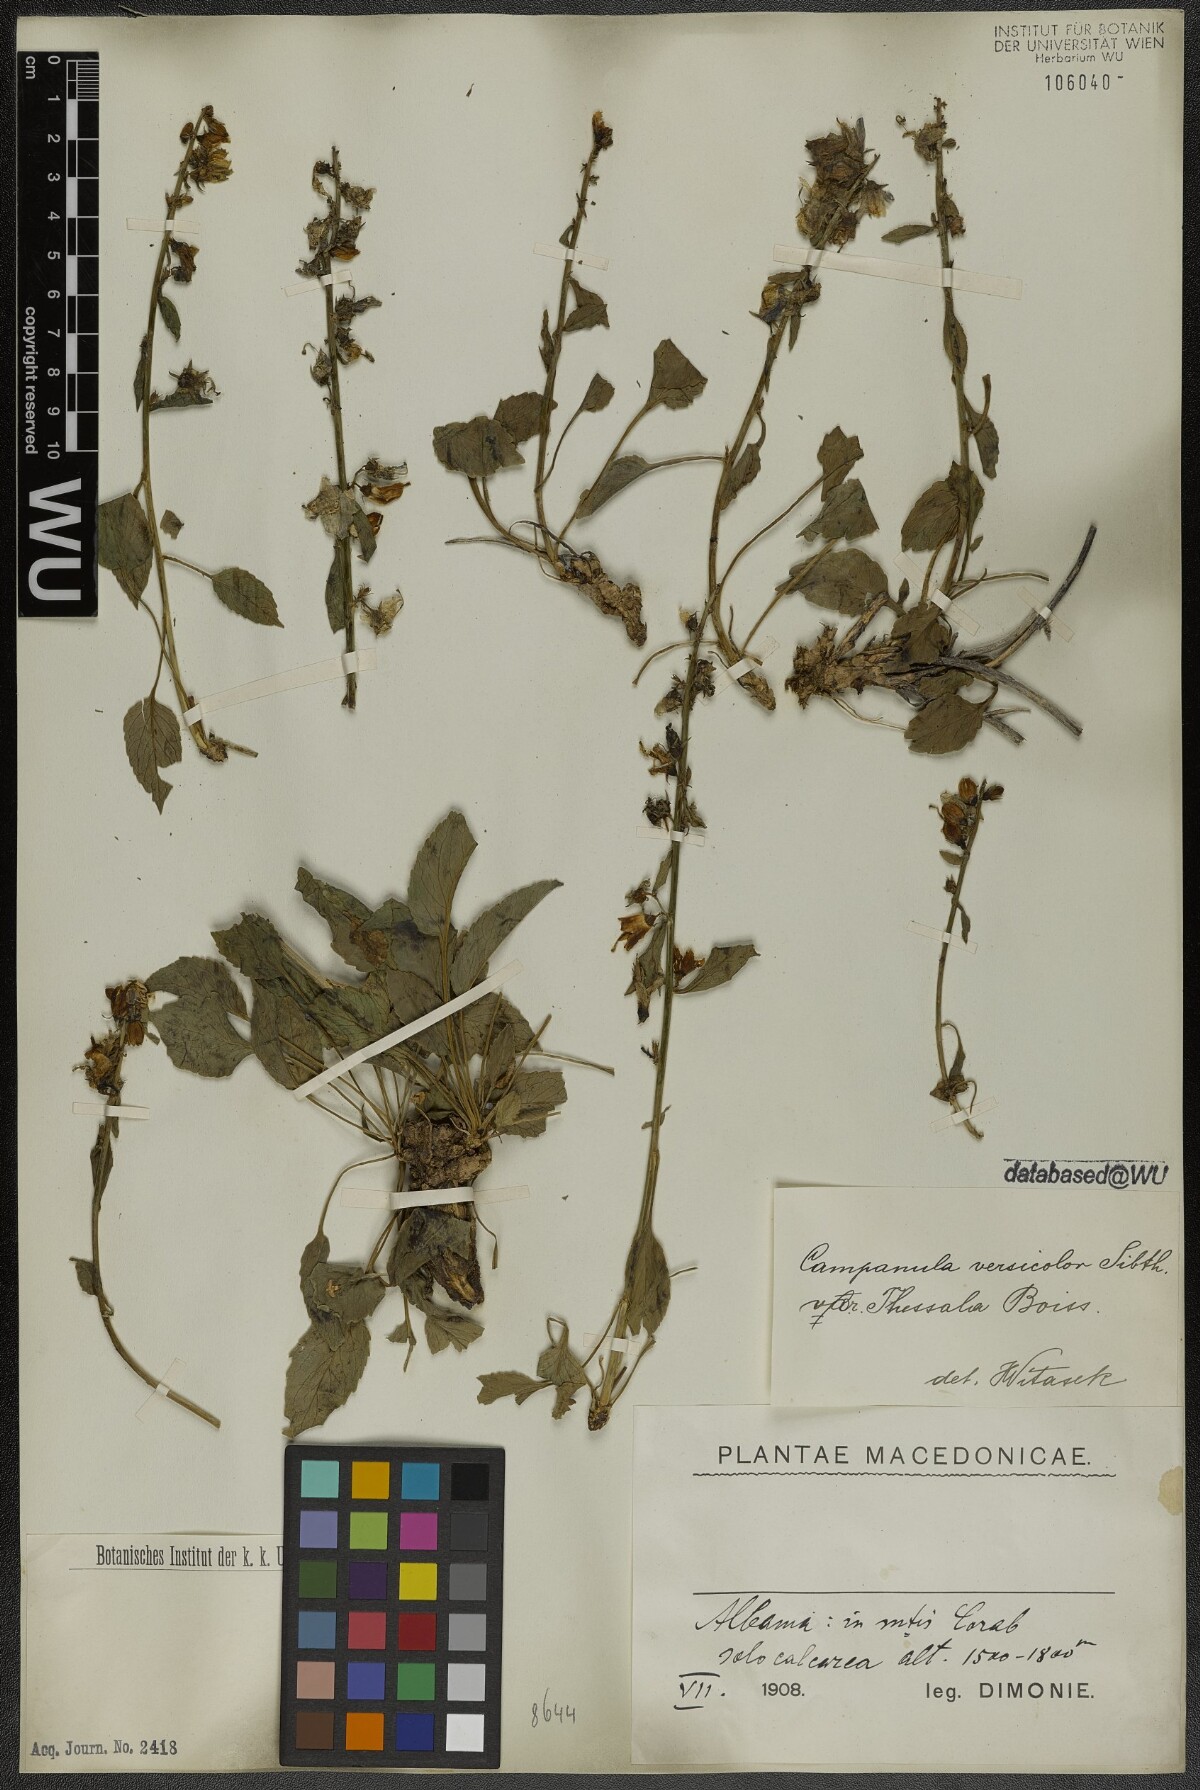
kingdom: Plantae
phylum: Tracheophyta
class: Magnoliopsida
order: Asterales
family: Campanulaceae
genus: Campanula
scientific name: Campanula versicolor
